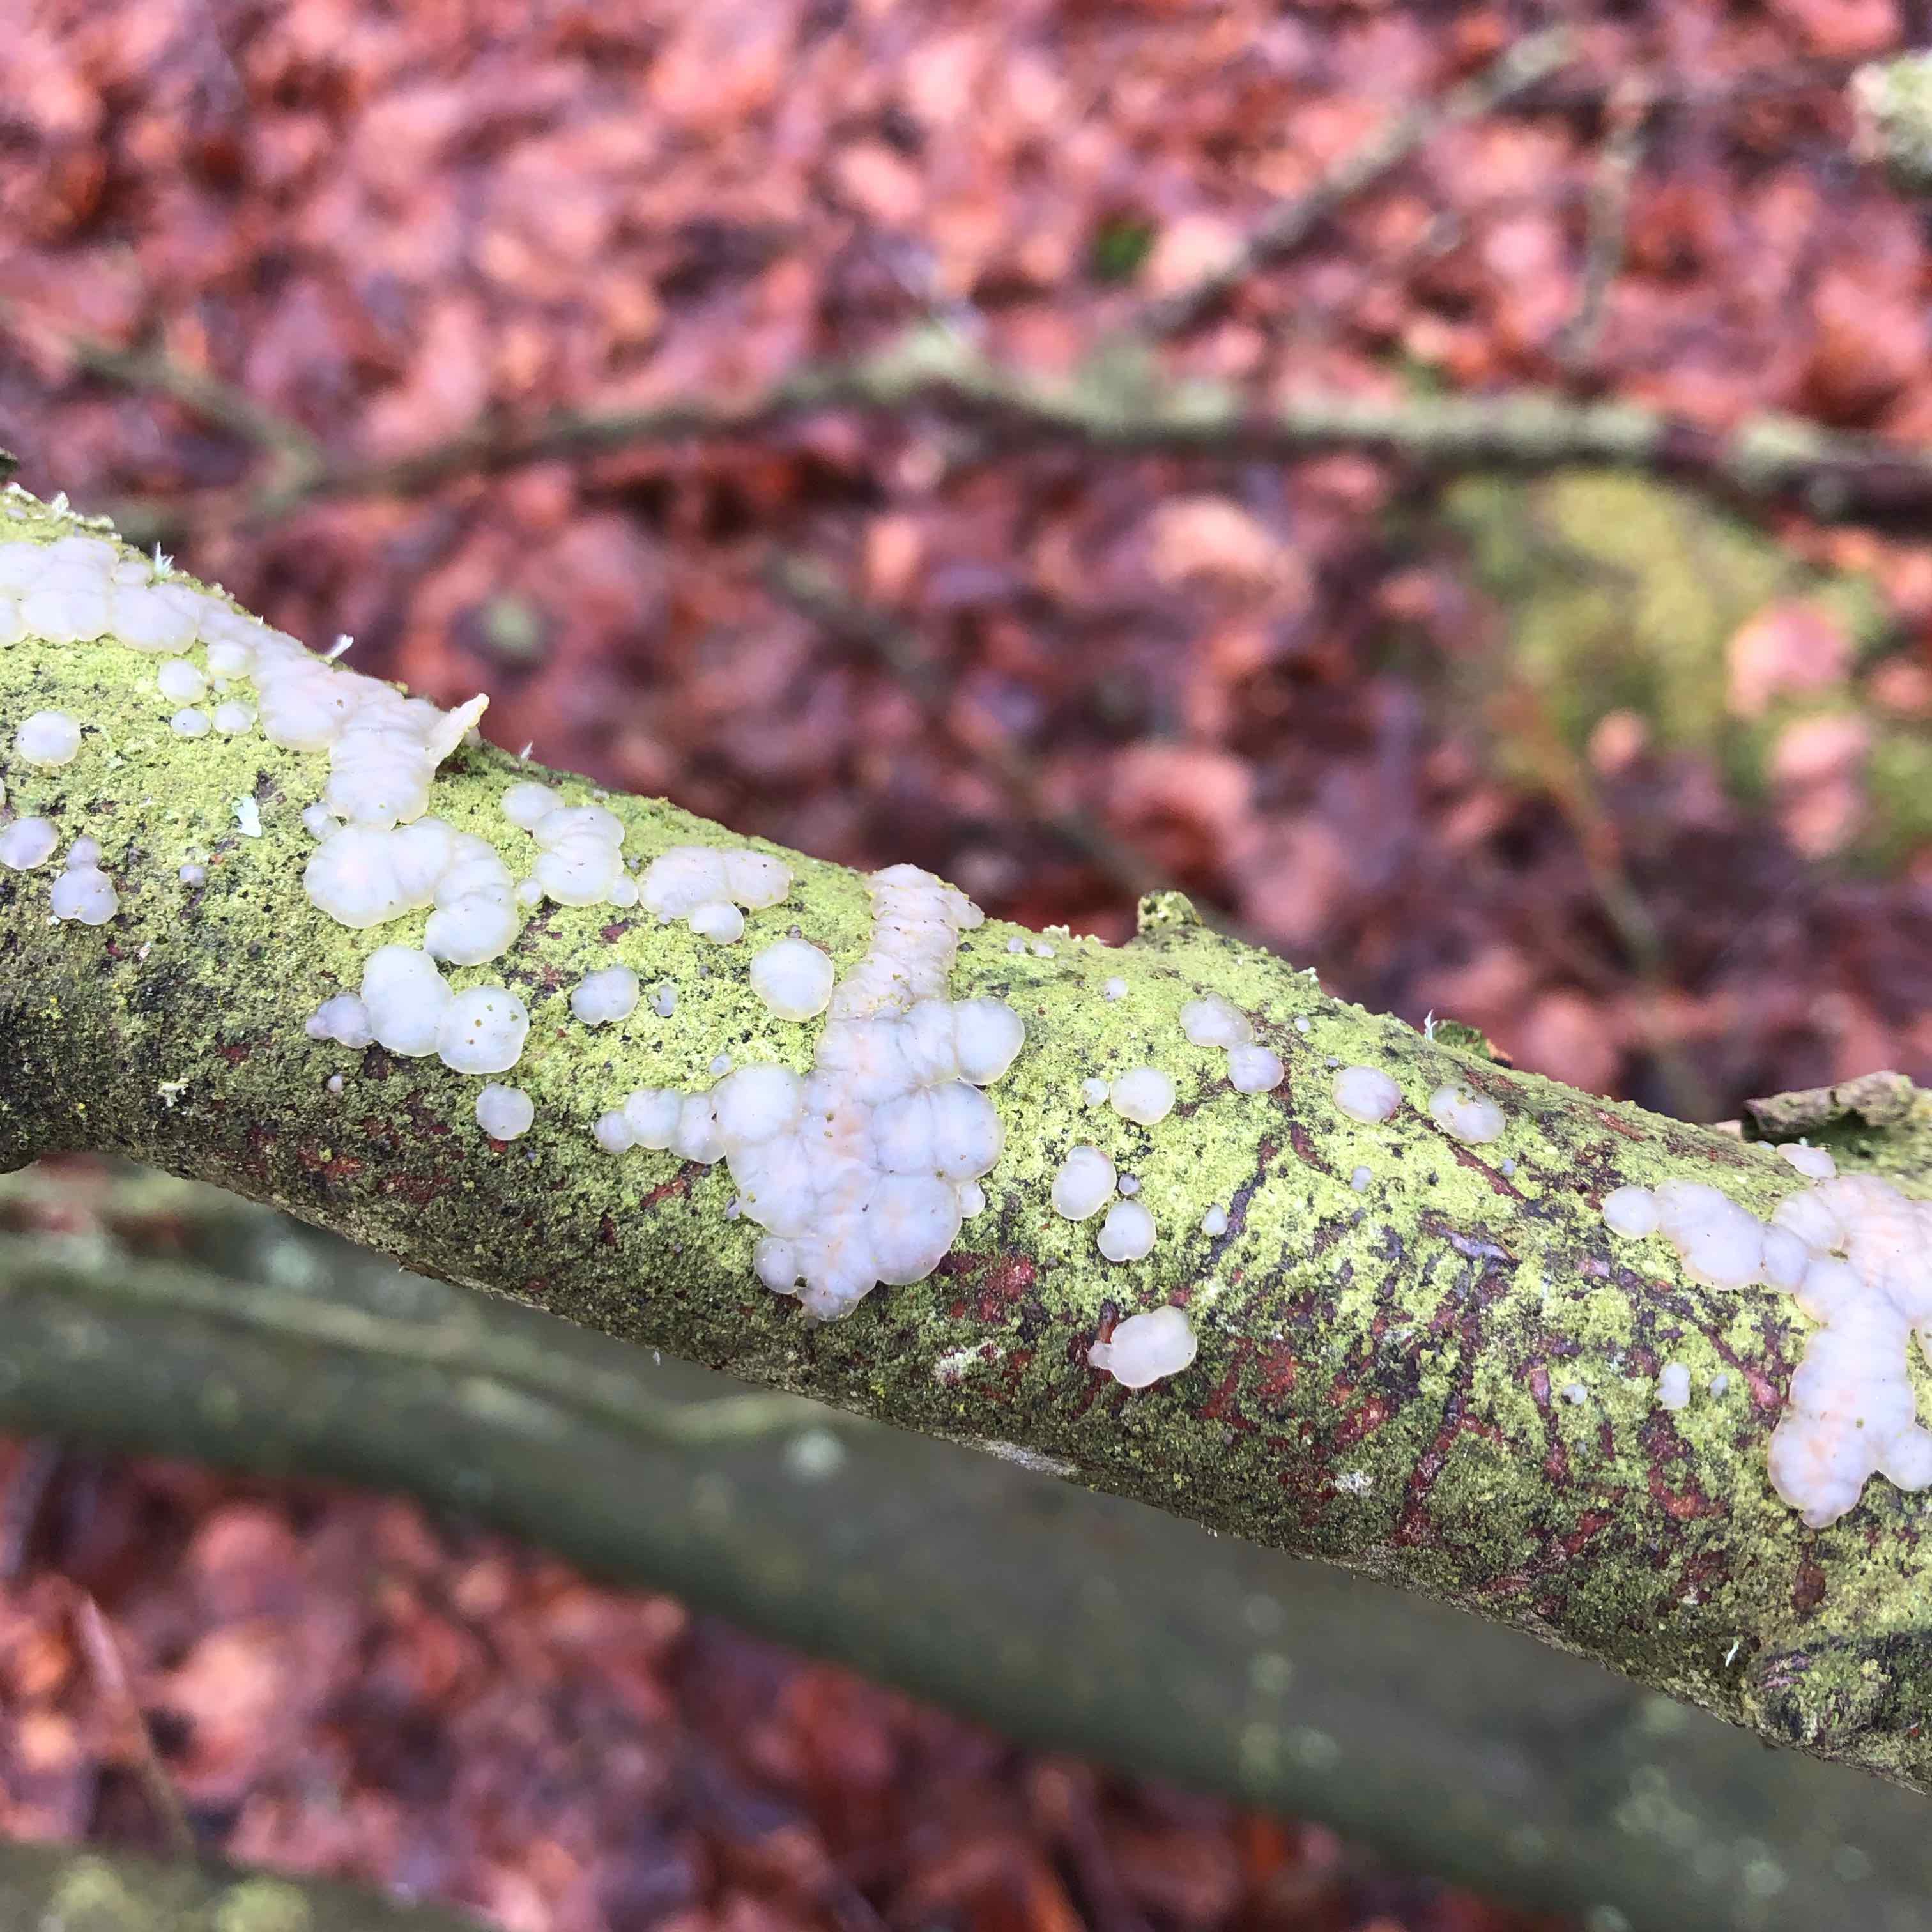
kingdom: Fungi
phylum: Basidiomycota
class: Agaricomycetes
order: Auriculariales
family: Auriculariaceae
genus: Exidia
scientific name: Exidia thuretiana
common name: hvidlig bævretop
